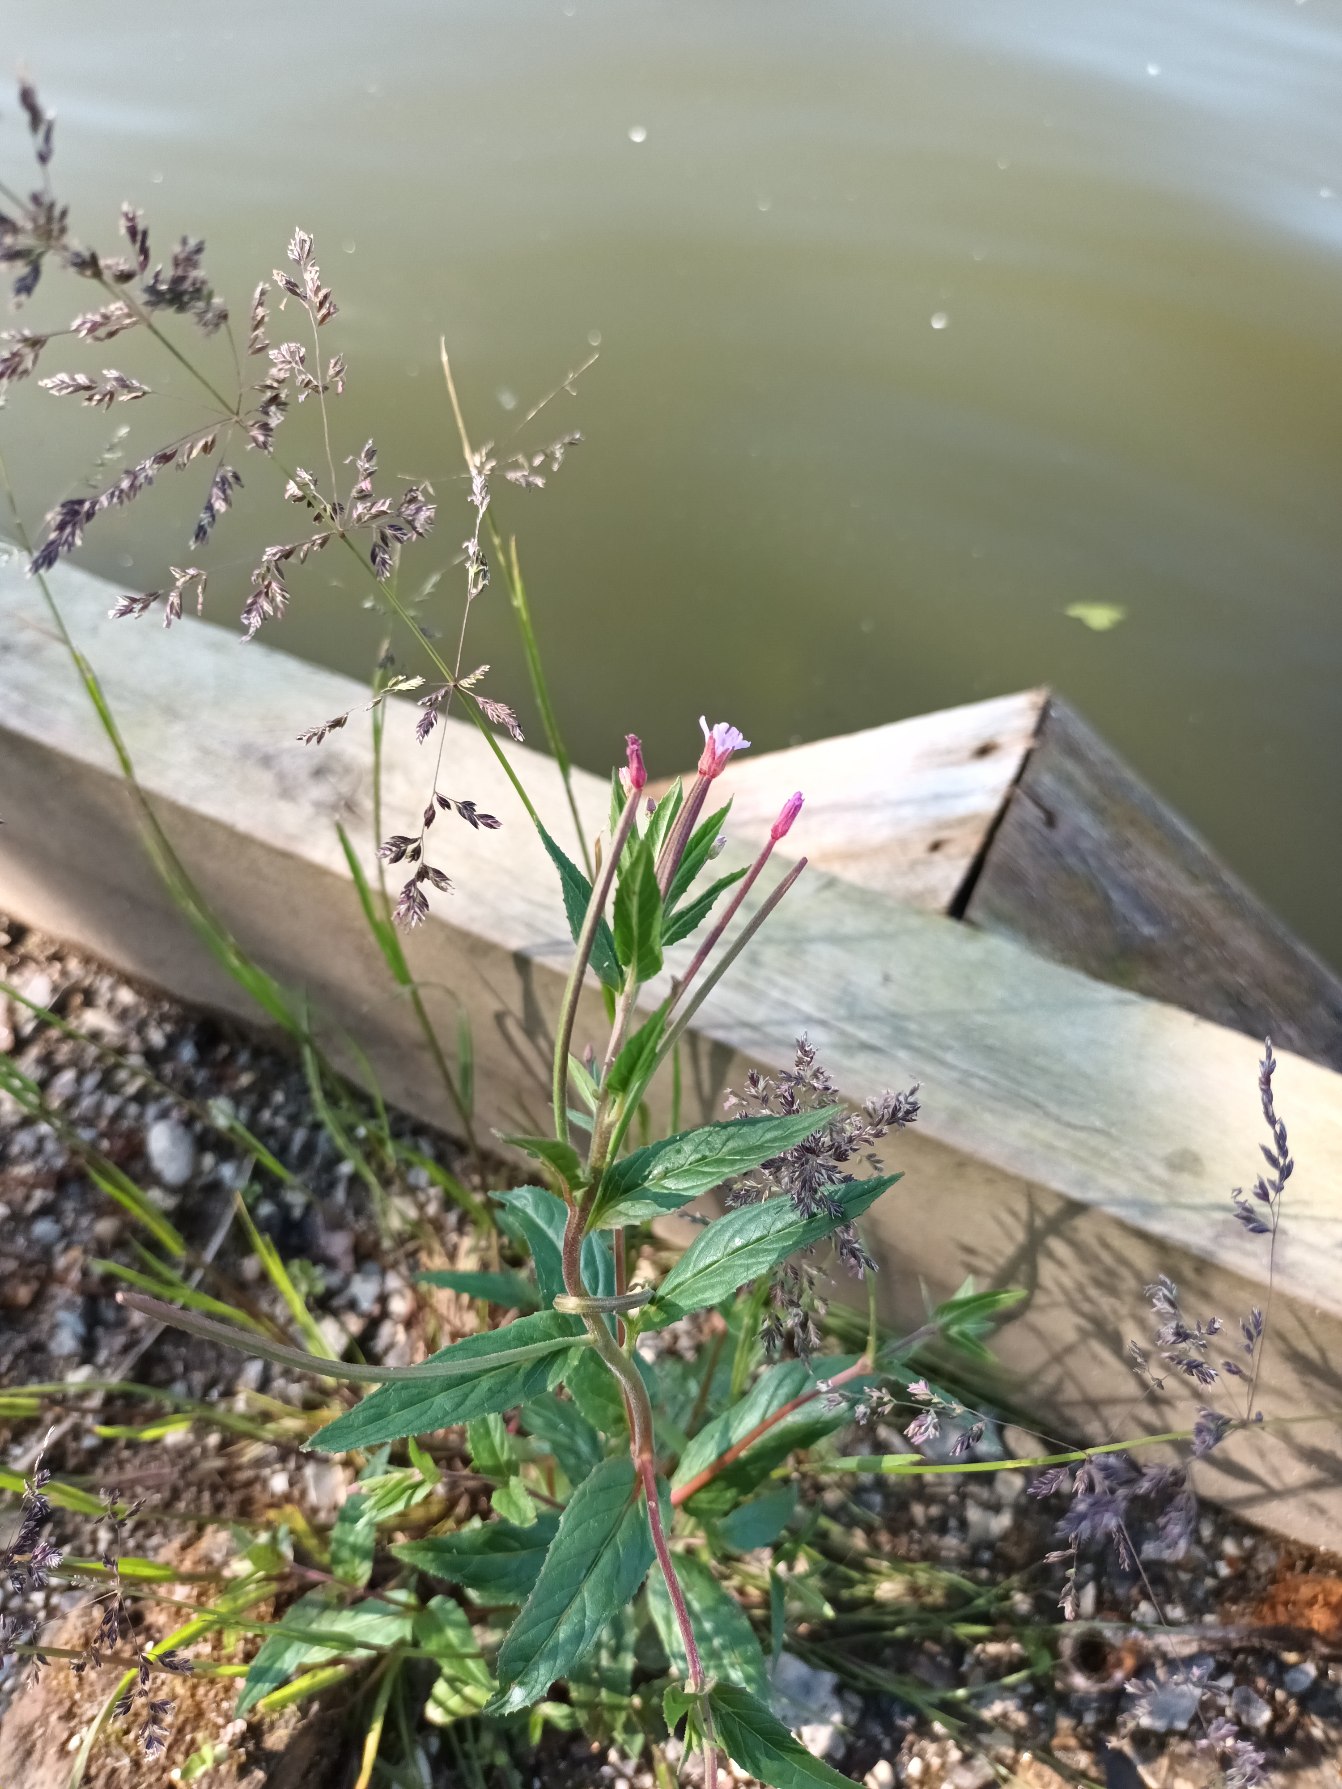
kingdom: Plantae
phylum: Tracheophyta
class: Magnoliopsida
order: Myrtales
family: Onagraceae
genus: Epilobium
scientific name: Epilobium ciliatum
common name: Kirtlet dueurt
